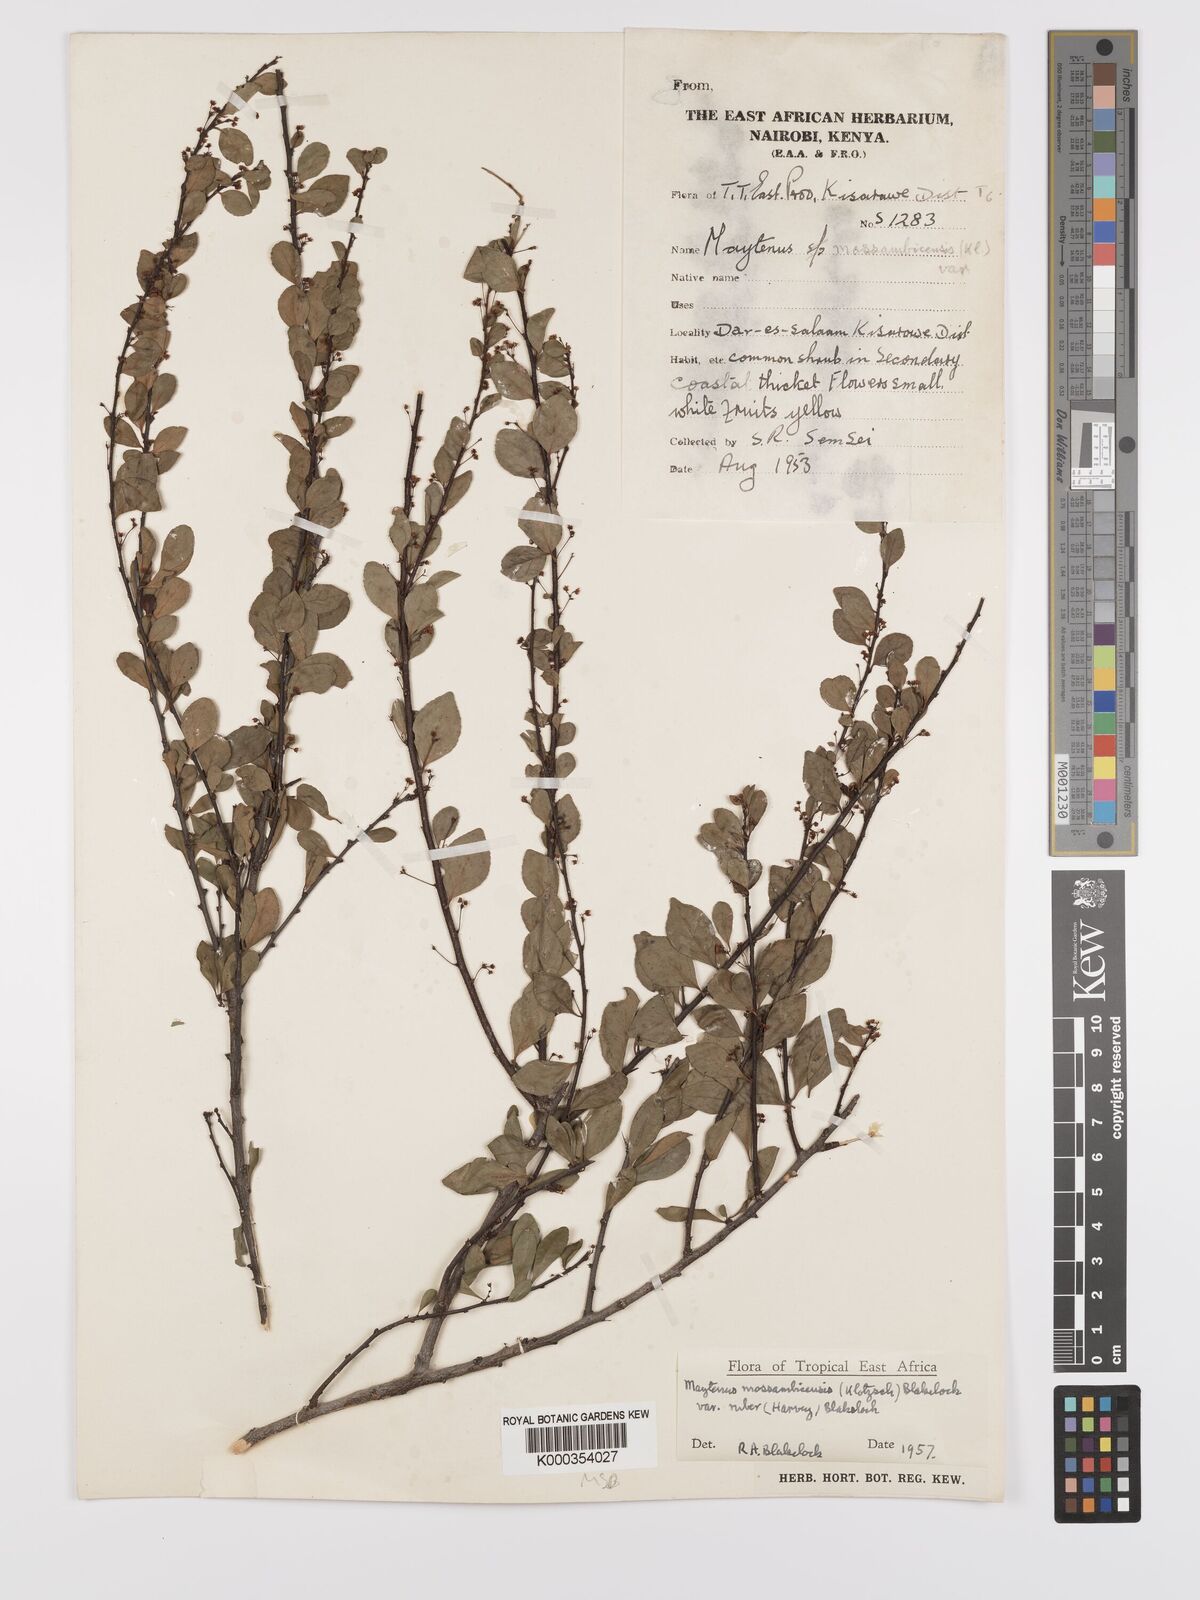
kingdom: Plantae
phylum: Tracheophyta
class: Magnoliopsida
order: Celastrales
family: Celastraceae
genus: Gymnosporia
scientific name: Gymnosporia mossambicensis
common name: Black forest spike-thorn
